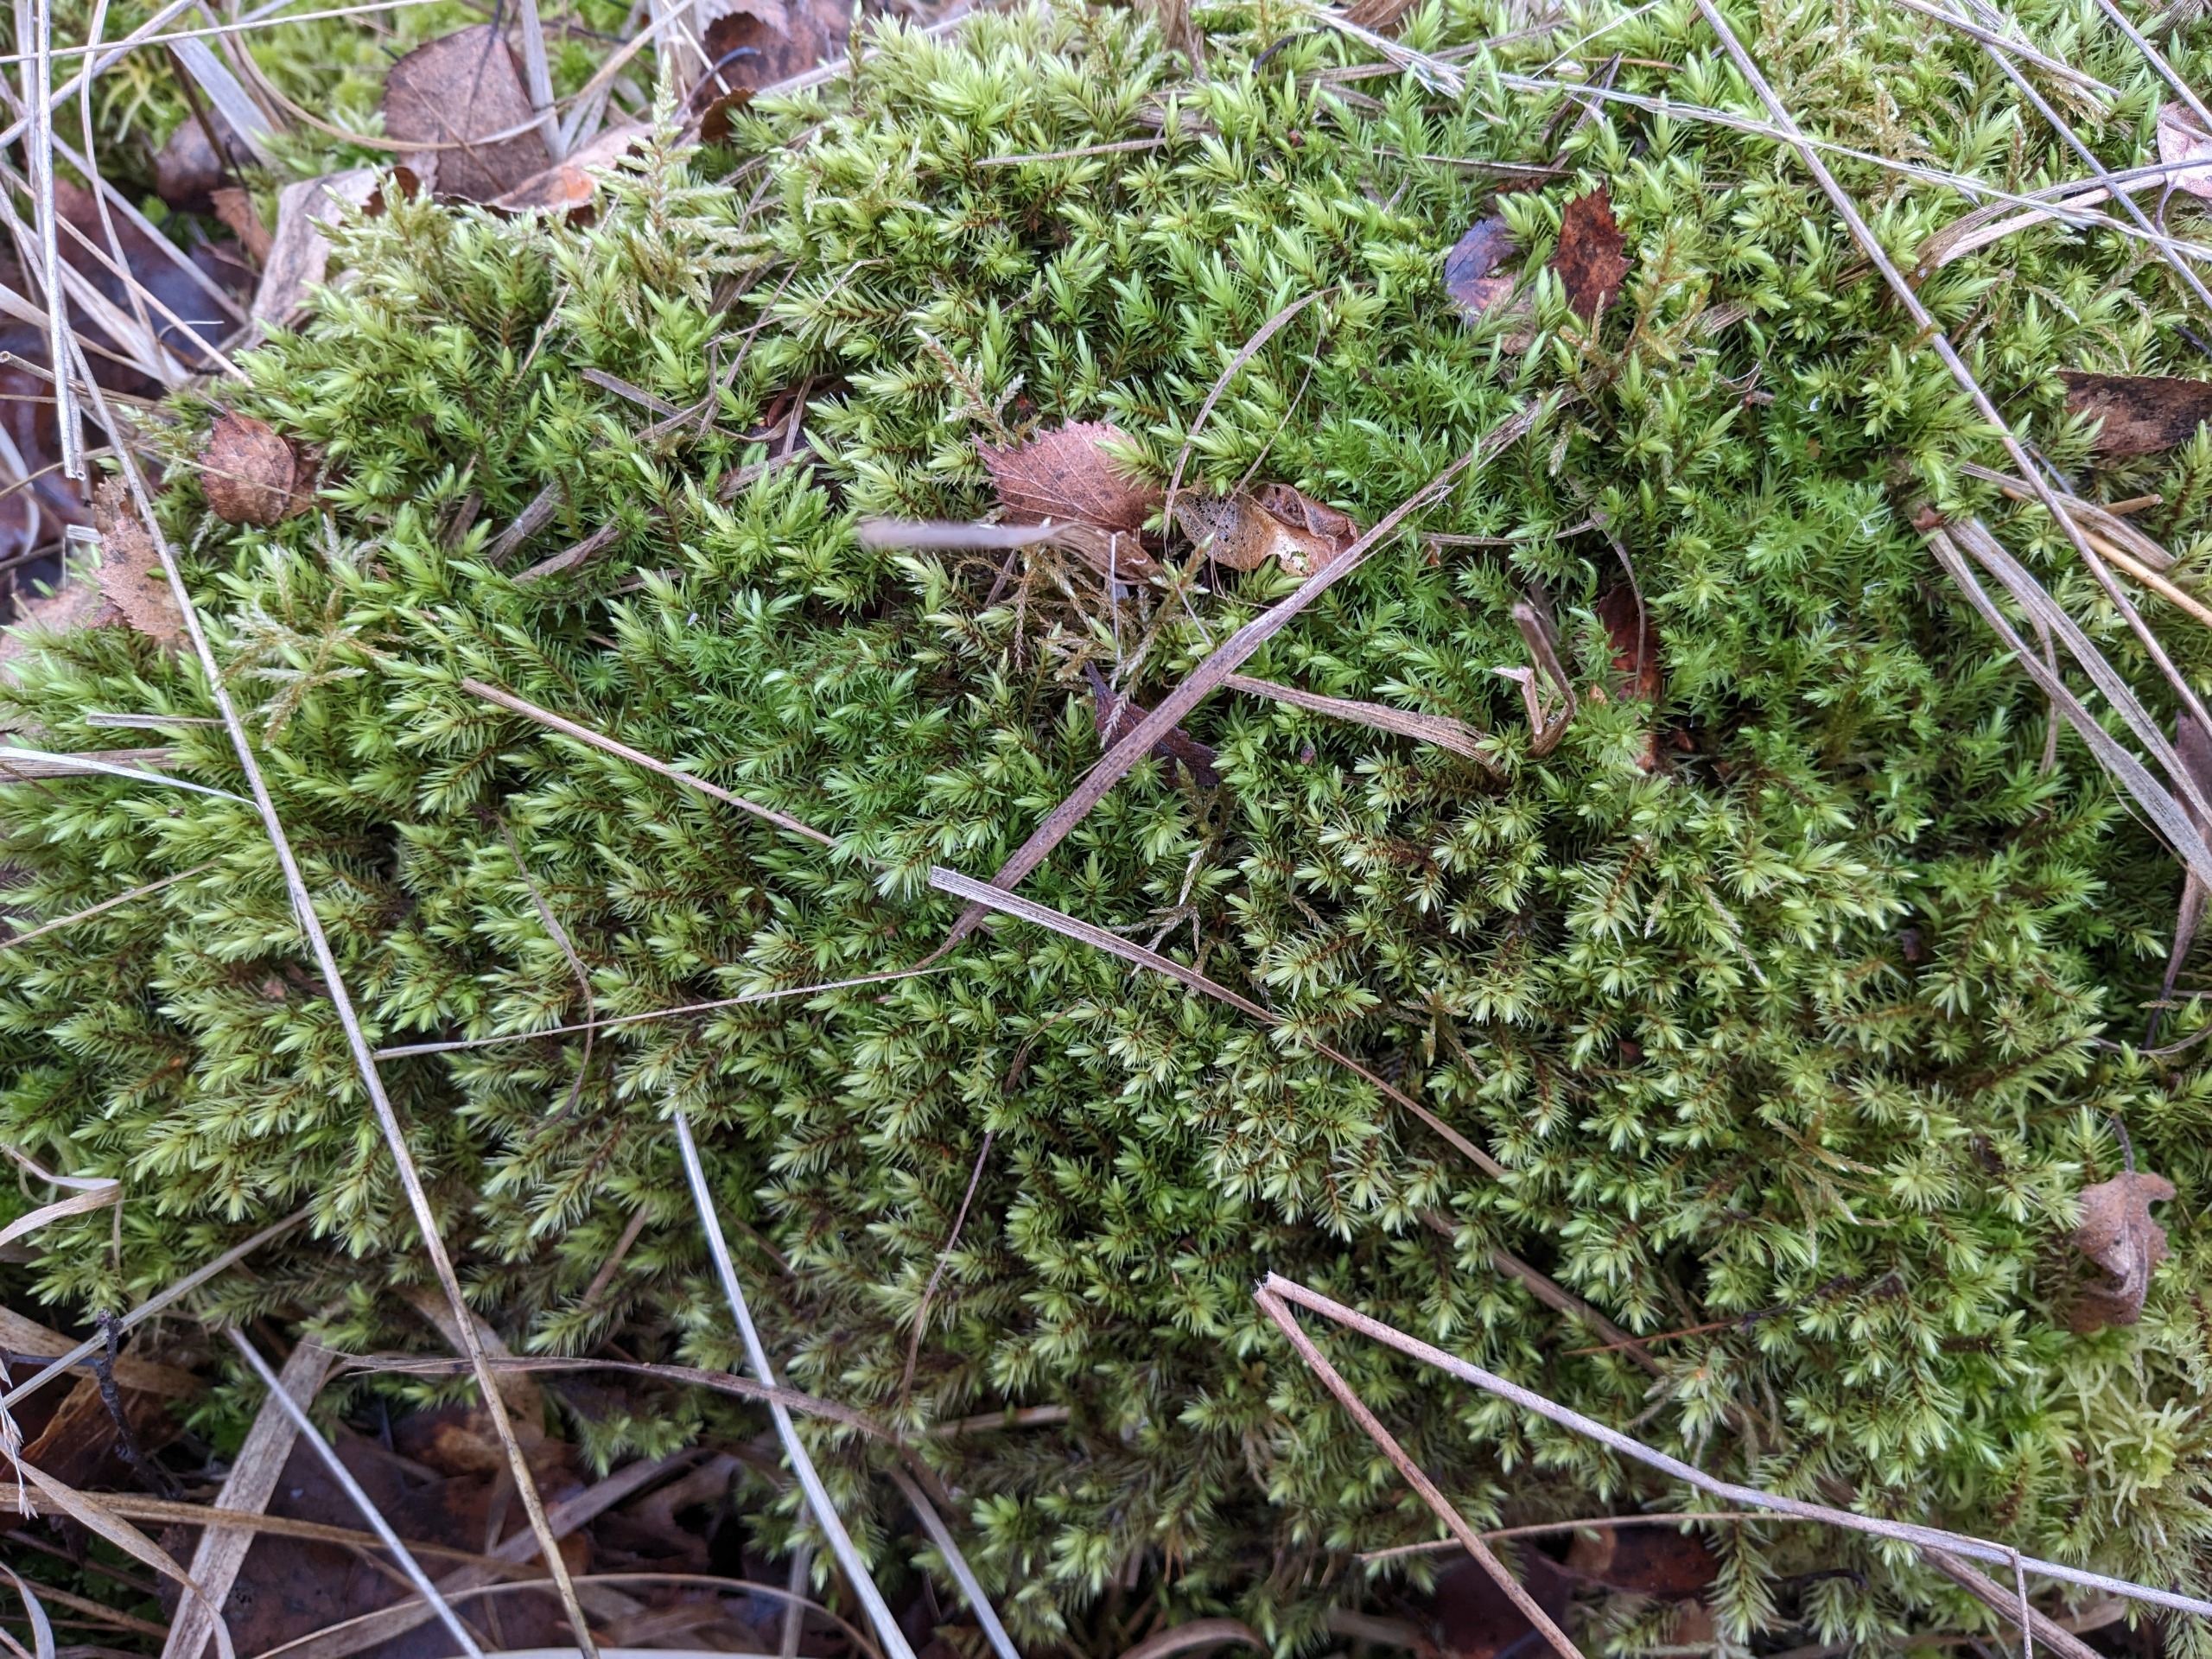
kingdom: Plantae
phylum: Bryophyta
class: Bryopsida
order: Aulacomniales
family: Aulacomniaceae
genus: Aulacomnium
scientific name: Aulacomnium palustre
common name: Almindelig filtmos
